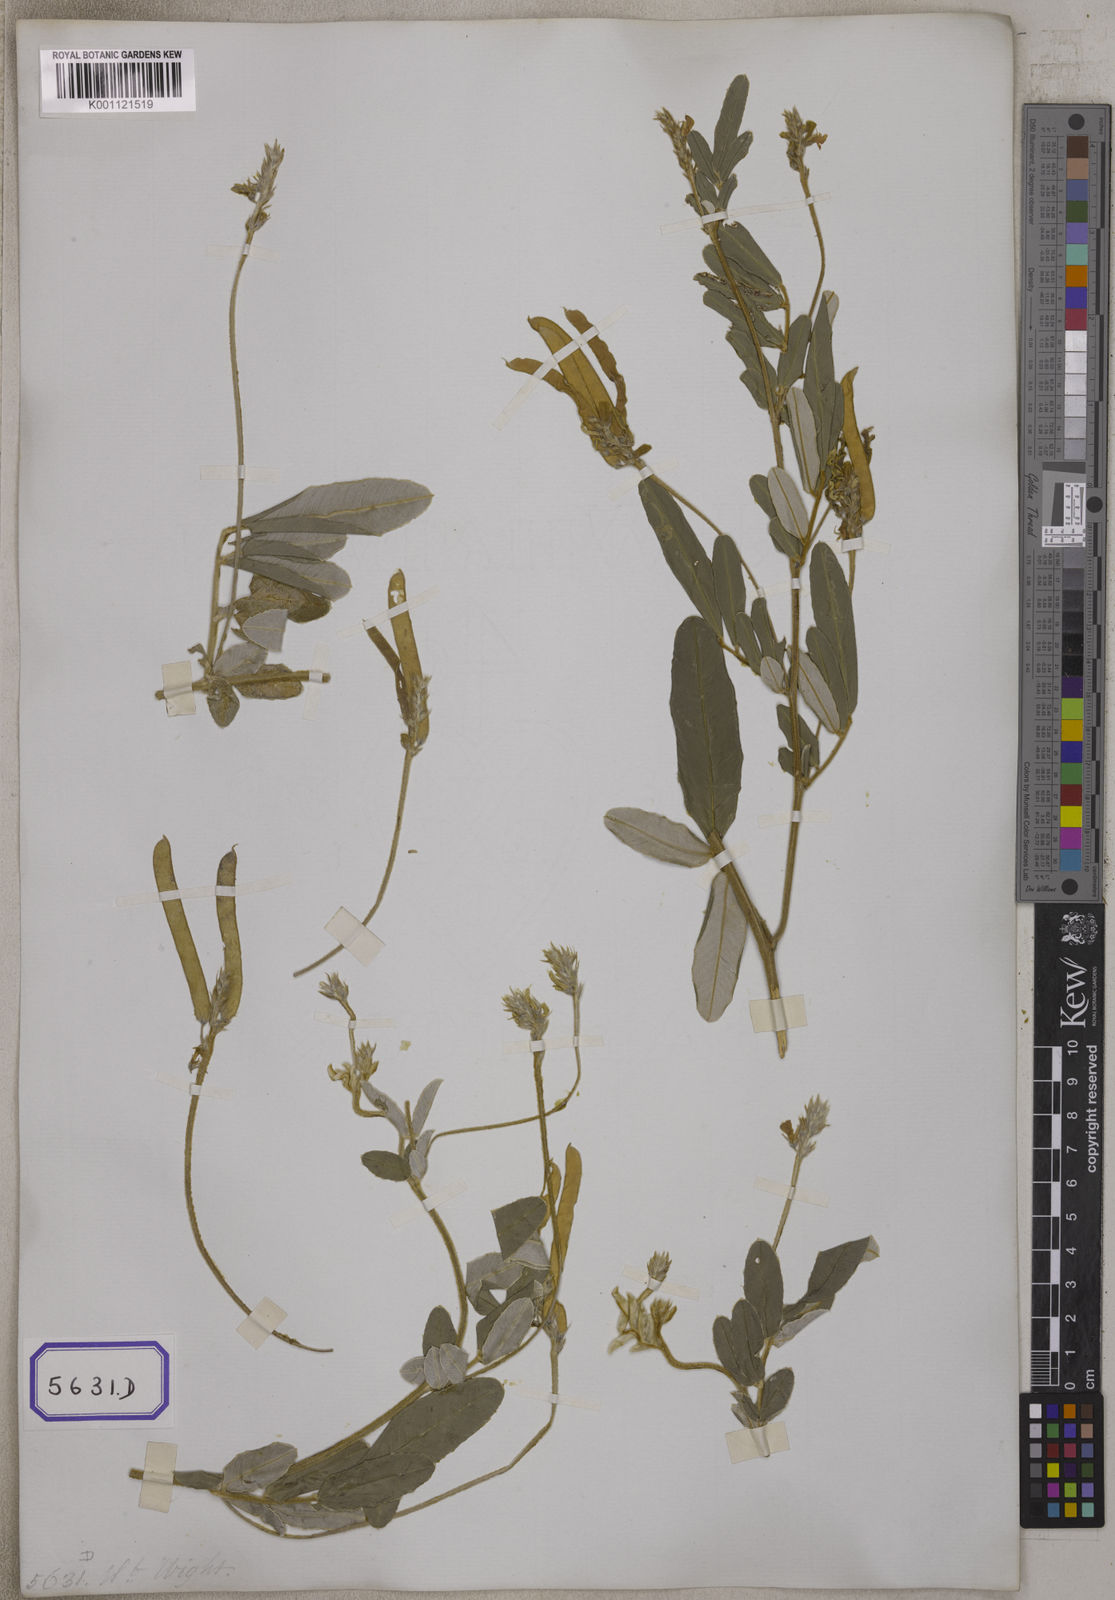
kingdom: Plantae
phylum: Tracheophyta
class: Magnoliopsida
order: Fabales
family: Fabaceae
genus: Tephrosia
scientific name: Tephrosia
